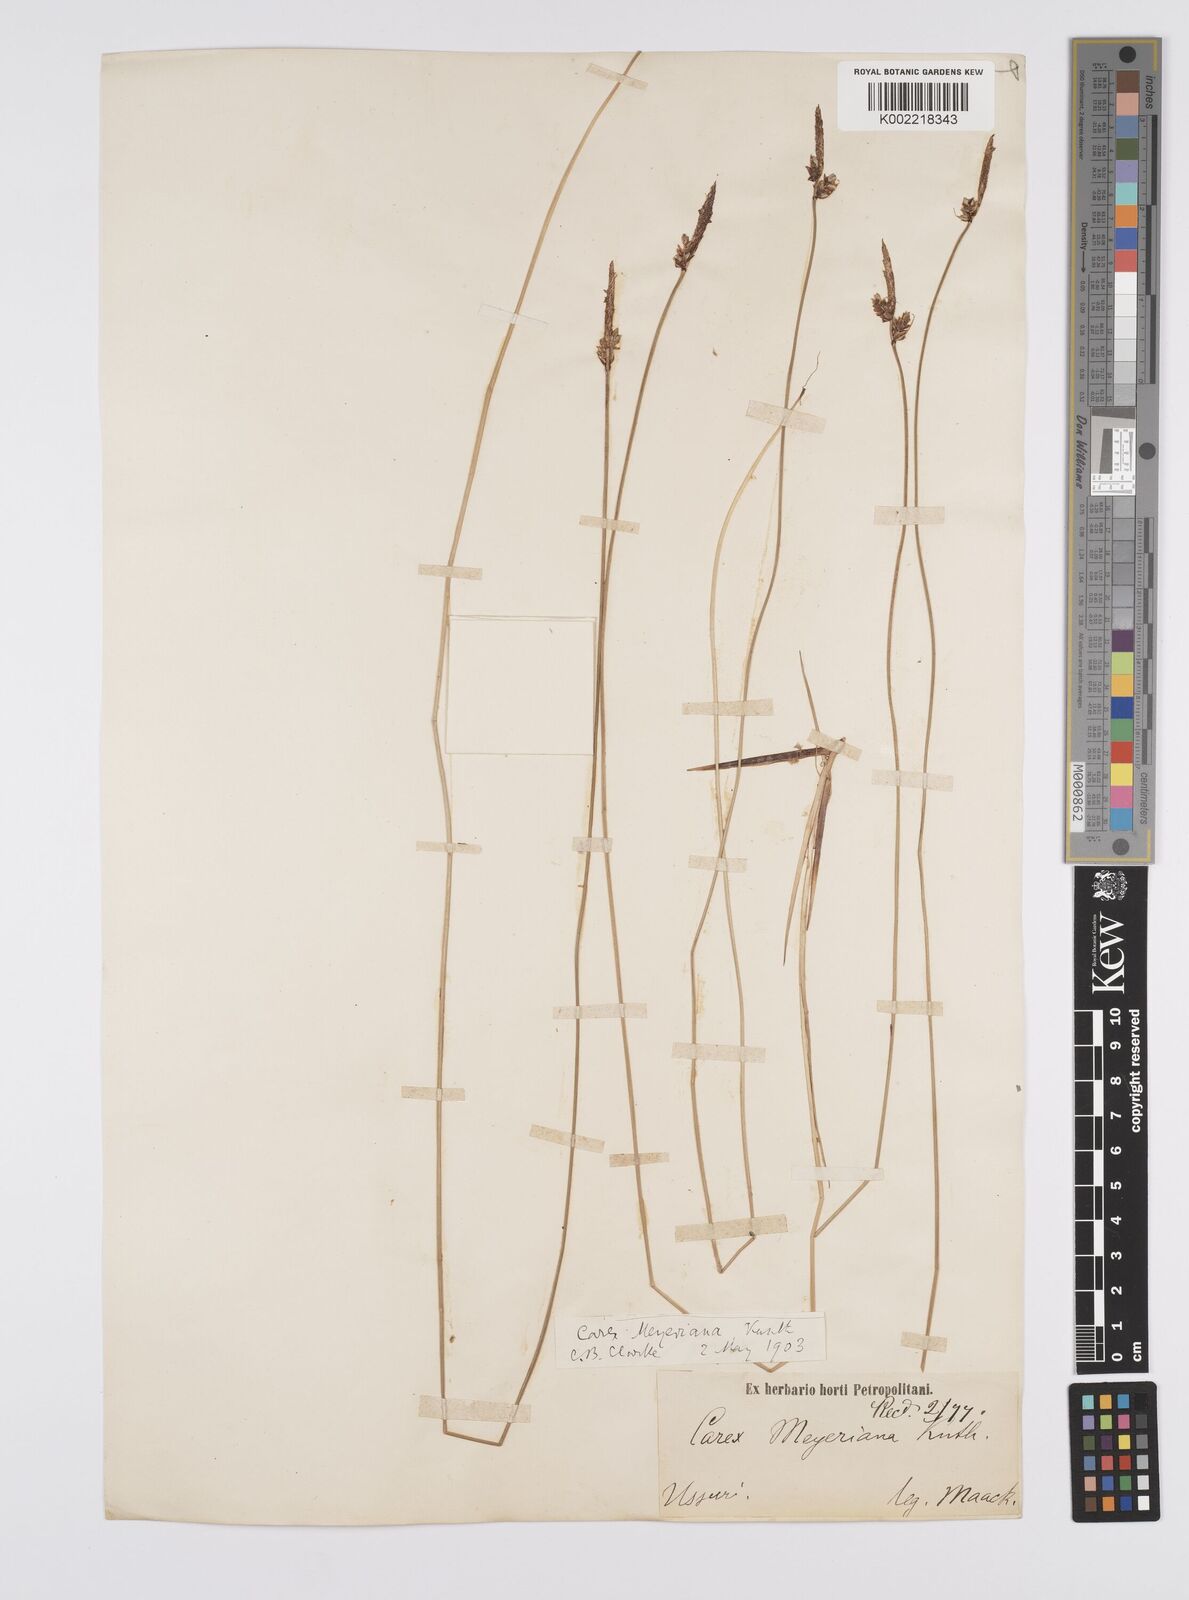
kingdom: Plantae
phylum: Tracheophyta
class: Liliopsida
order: Poales
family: Cyperaceae
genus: Carex
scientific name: Carex meyeriana
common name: Wula sedge
